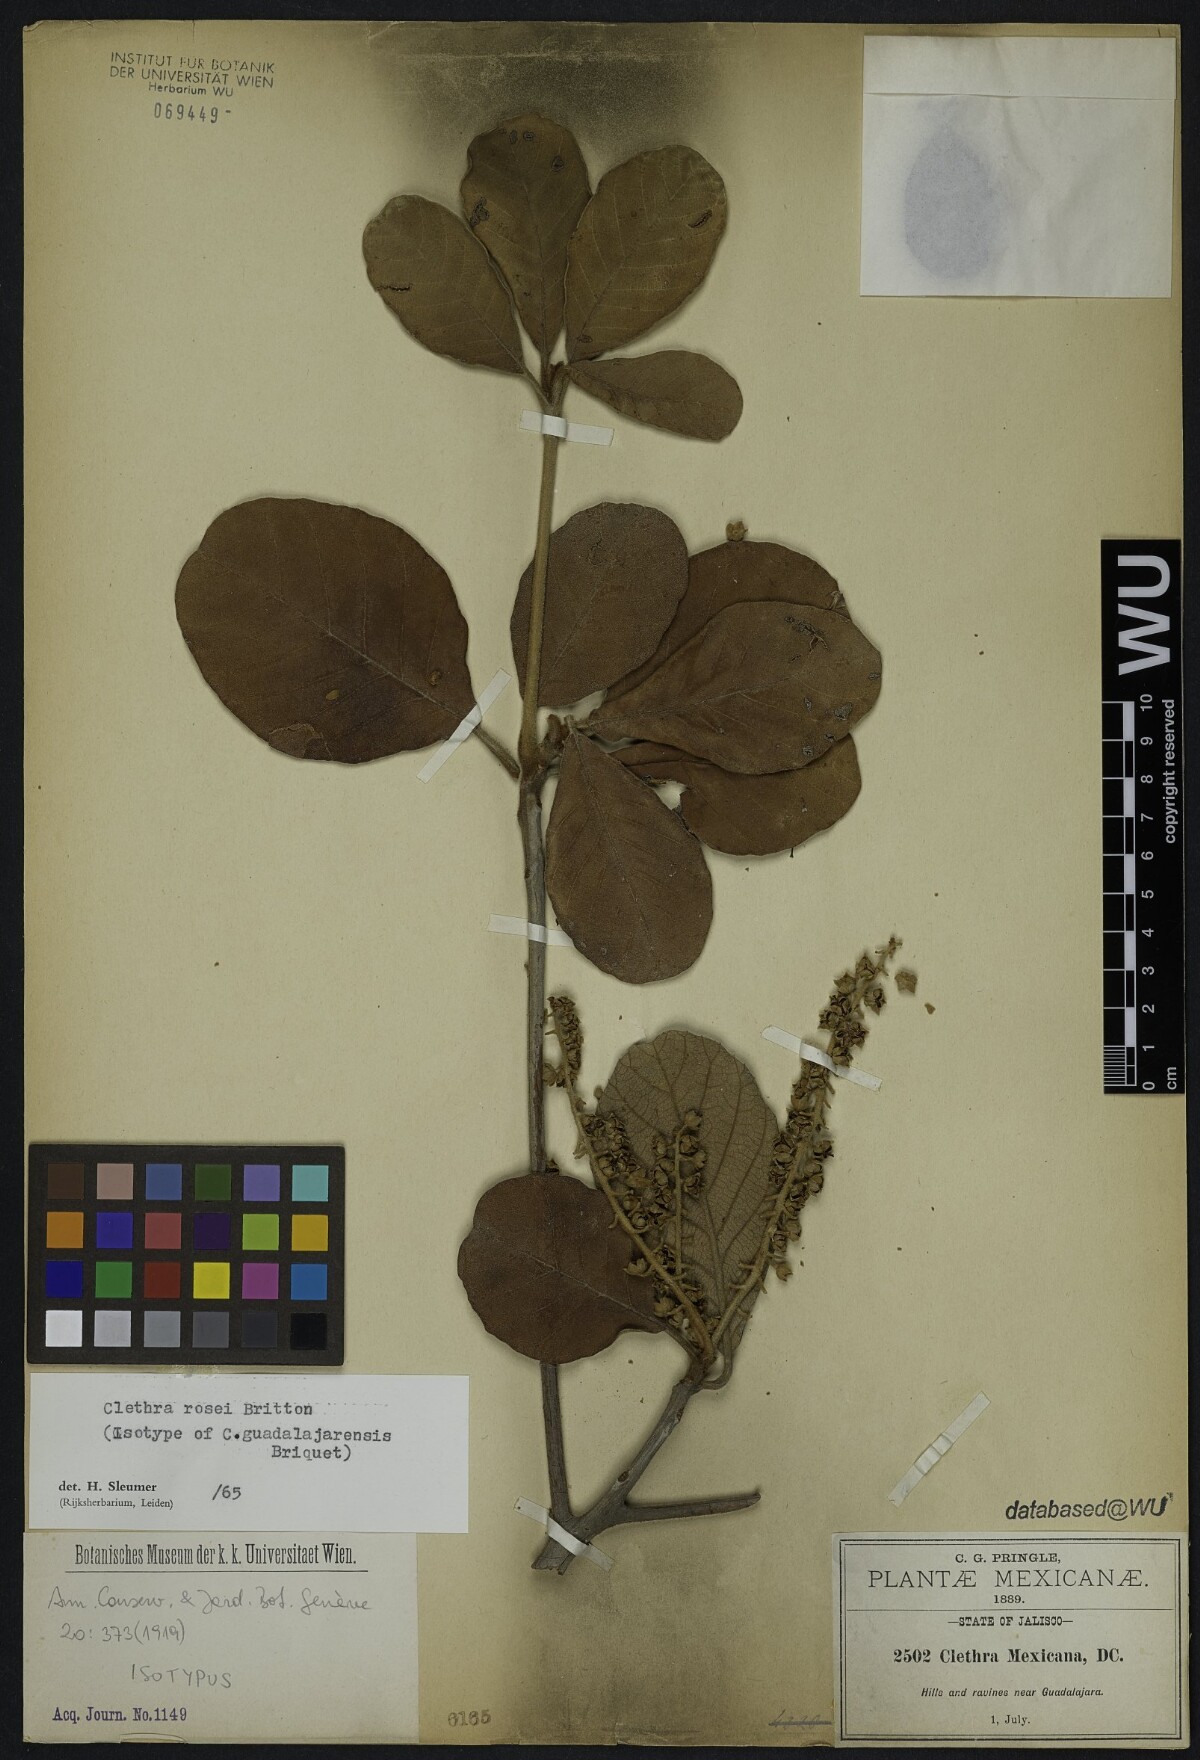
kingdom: Plantae
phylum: Tracheophyta
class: Magnoliopsida
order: Ericales
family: Clethraceae
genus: Clethra
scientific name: Clethra rosei
